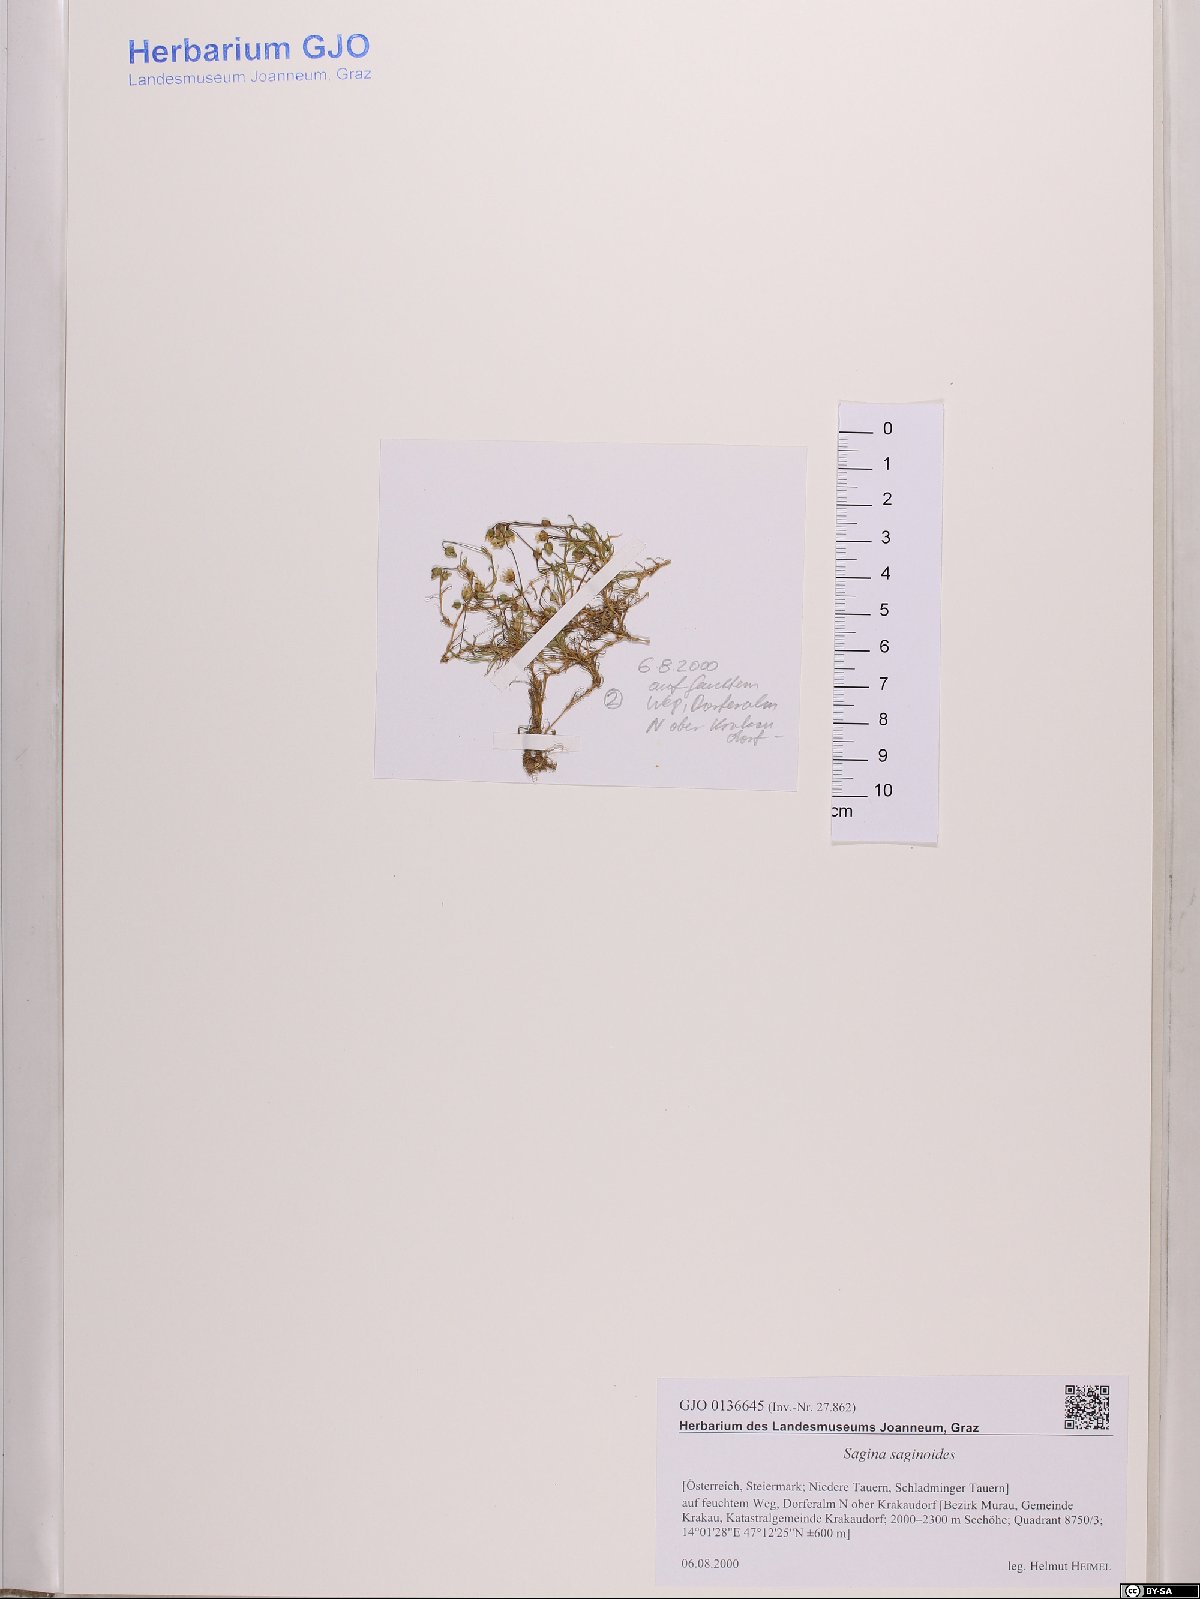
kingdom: Plantae
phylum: Tracheophyta
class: Magnoliopsida
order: Caryophyllales
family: Caryophyllaceae
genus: Sagina
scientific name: Sagina saginoides
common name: Alpine pearlwort
